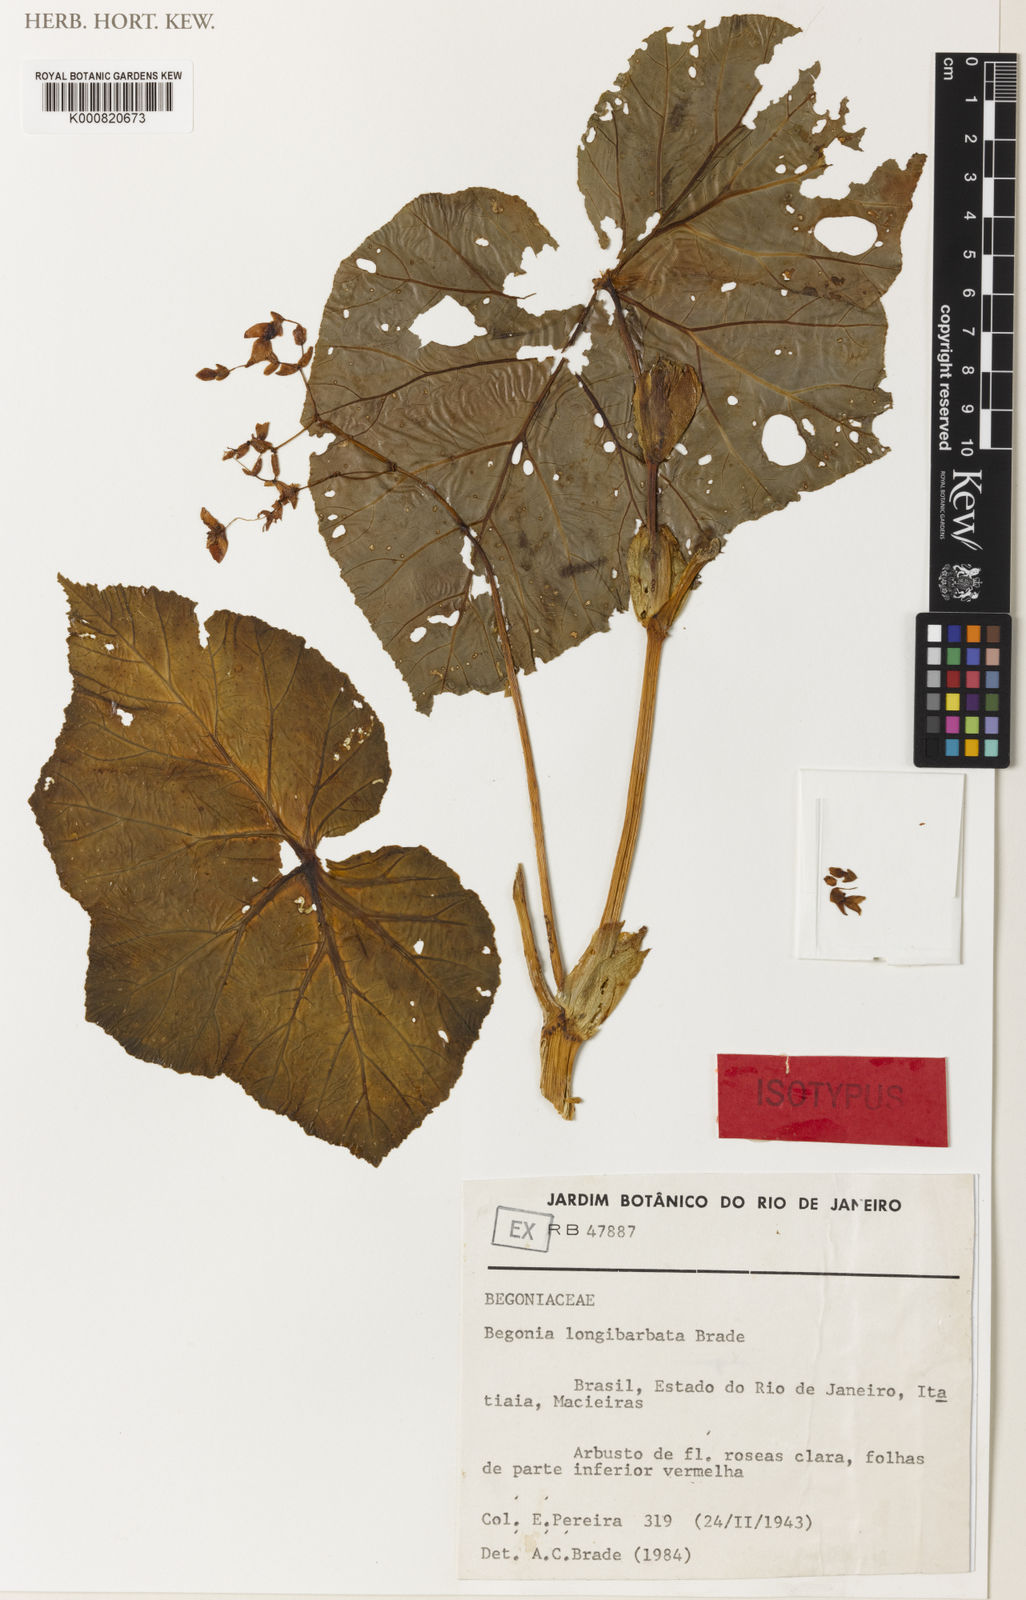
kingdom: Plantae
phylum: Tracheophyta
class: Magnoliopsida
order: Cucurbitales
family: Begoniaceae
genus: Begonia
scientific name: Begonia bonitoensis
